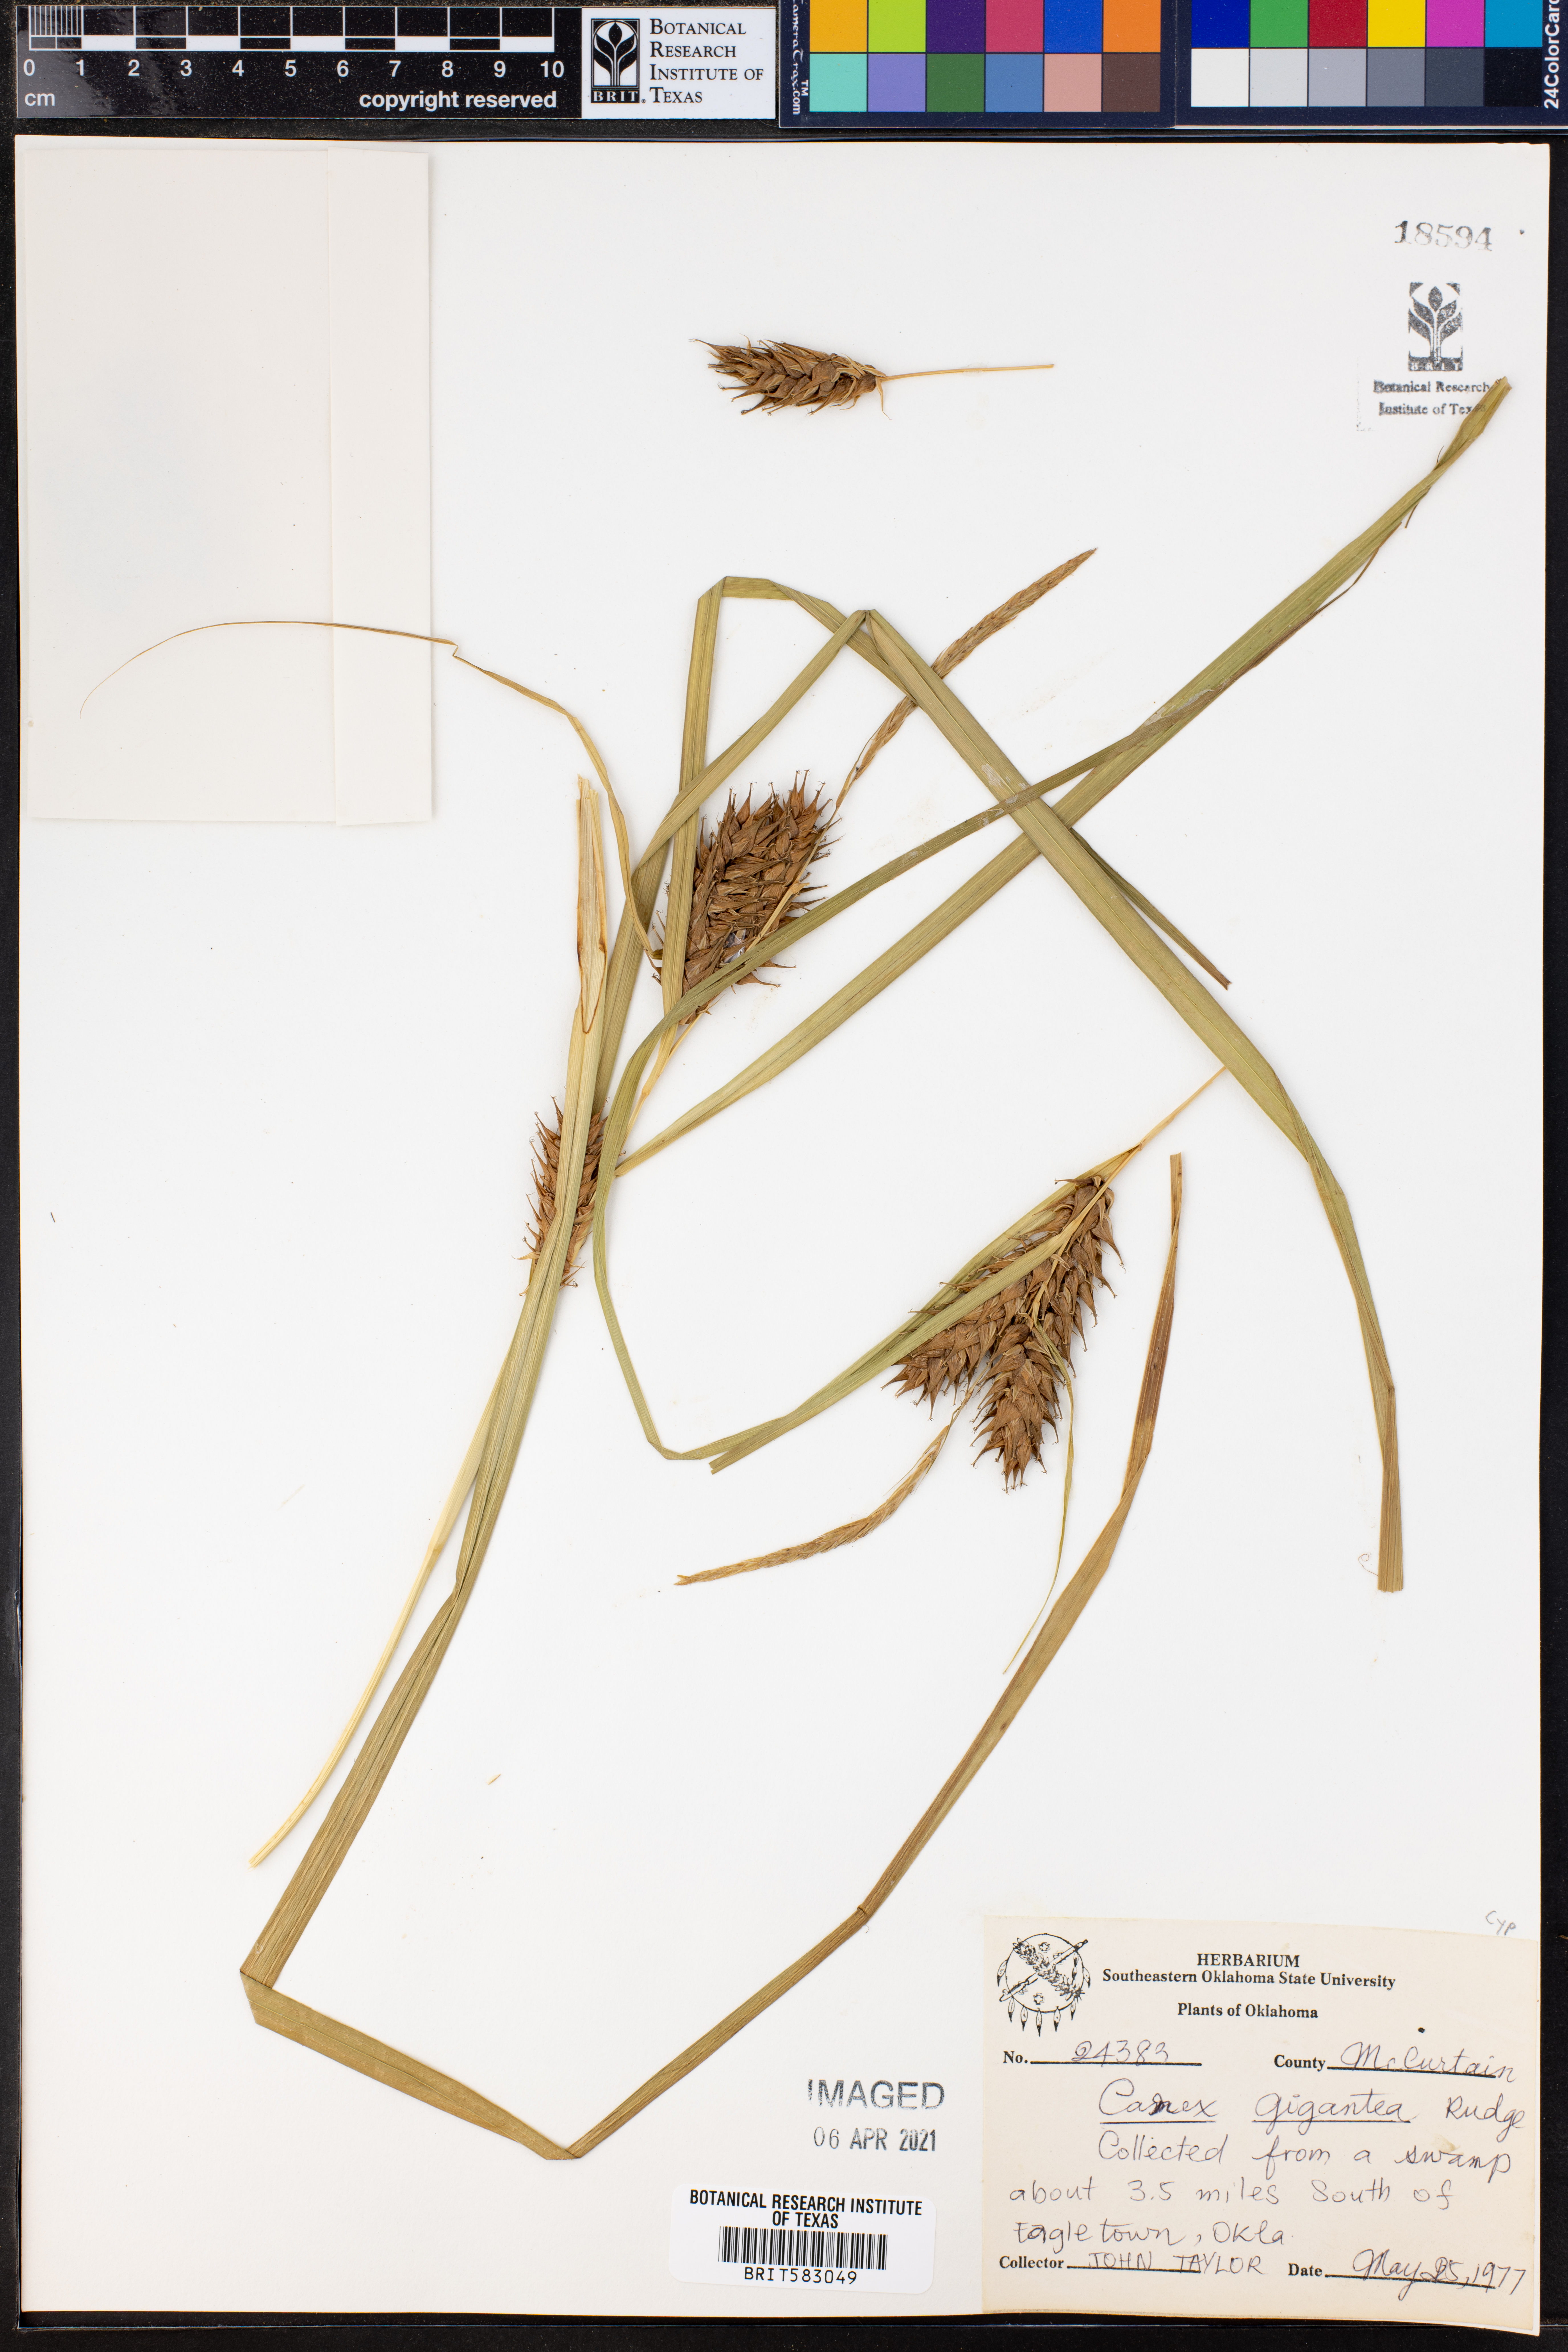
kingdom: Plantae
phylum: Tracheophyta
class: Liliopsida
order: Poales
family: Cyperaceae
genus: Carex
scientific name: Carex gigantea
